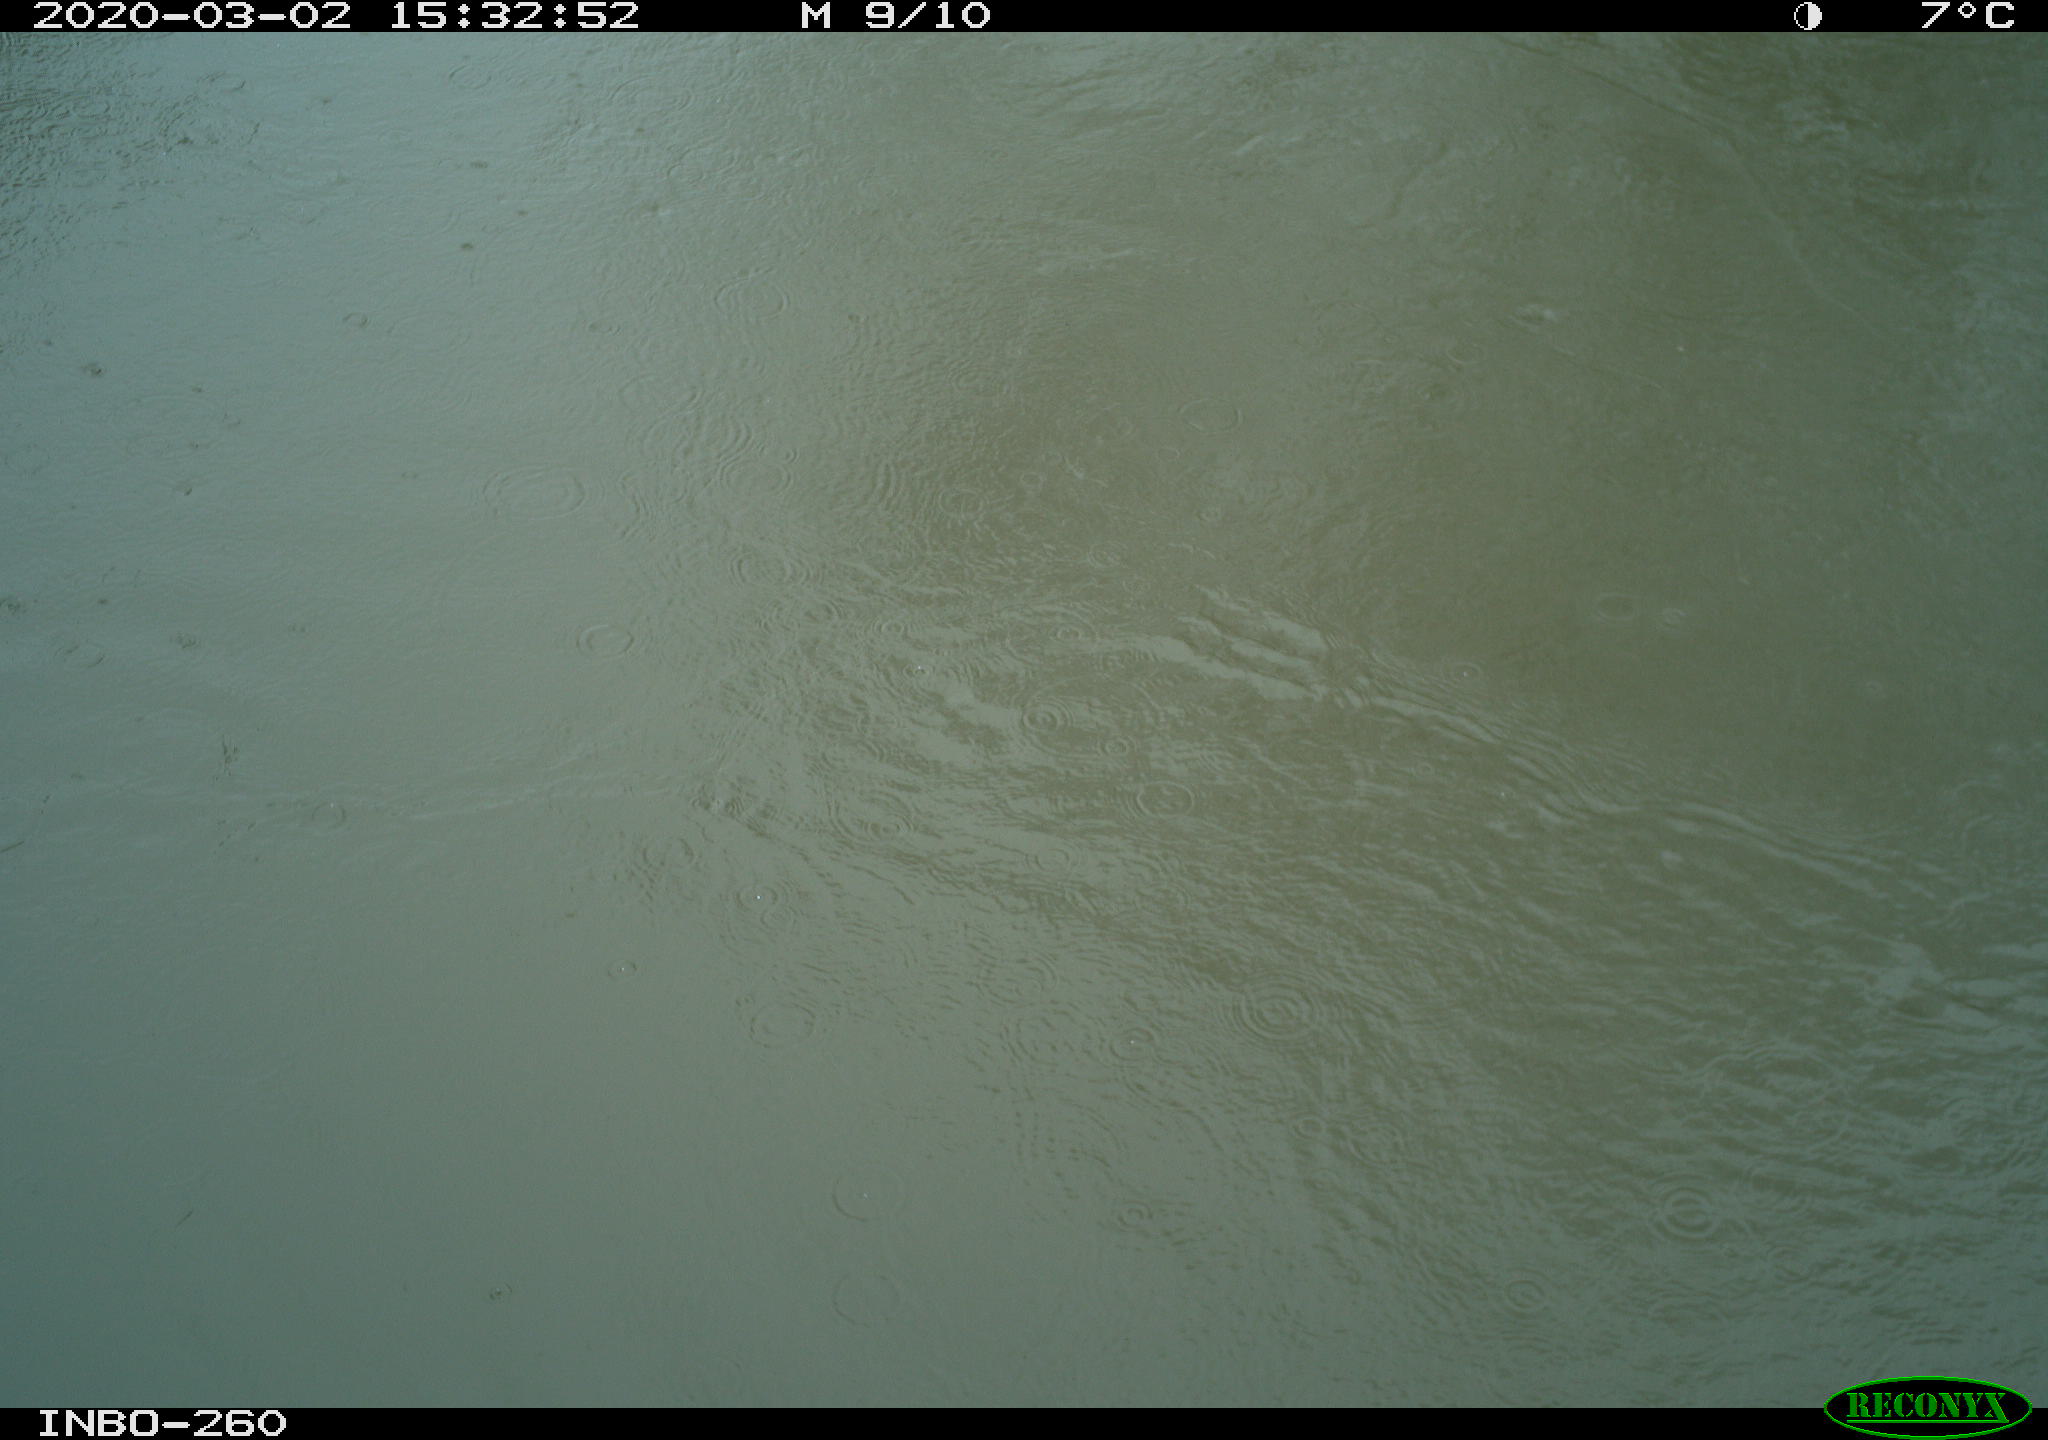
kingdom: Animalia
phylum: Chordata
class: Aves
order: Gruiformes
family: Rallidae
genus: Gallinula
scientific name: Gallinula chloropus
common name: Common moorhen
